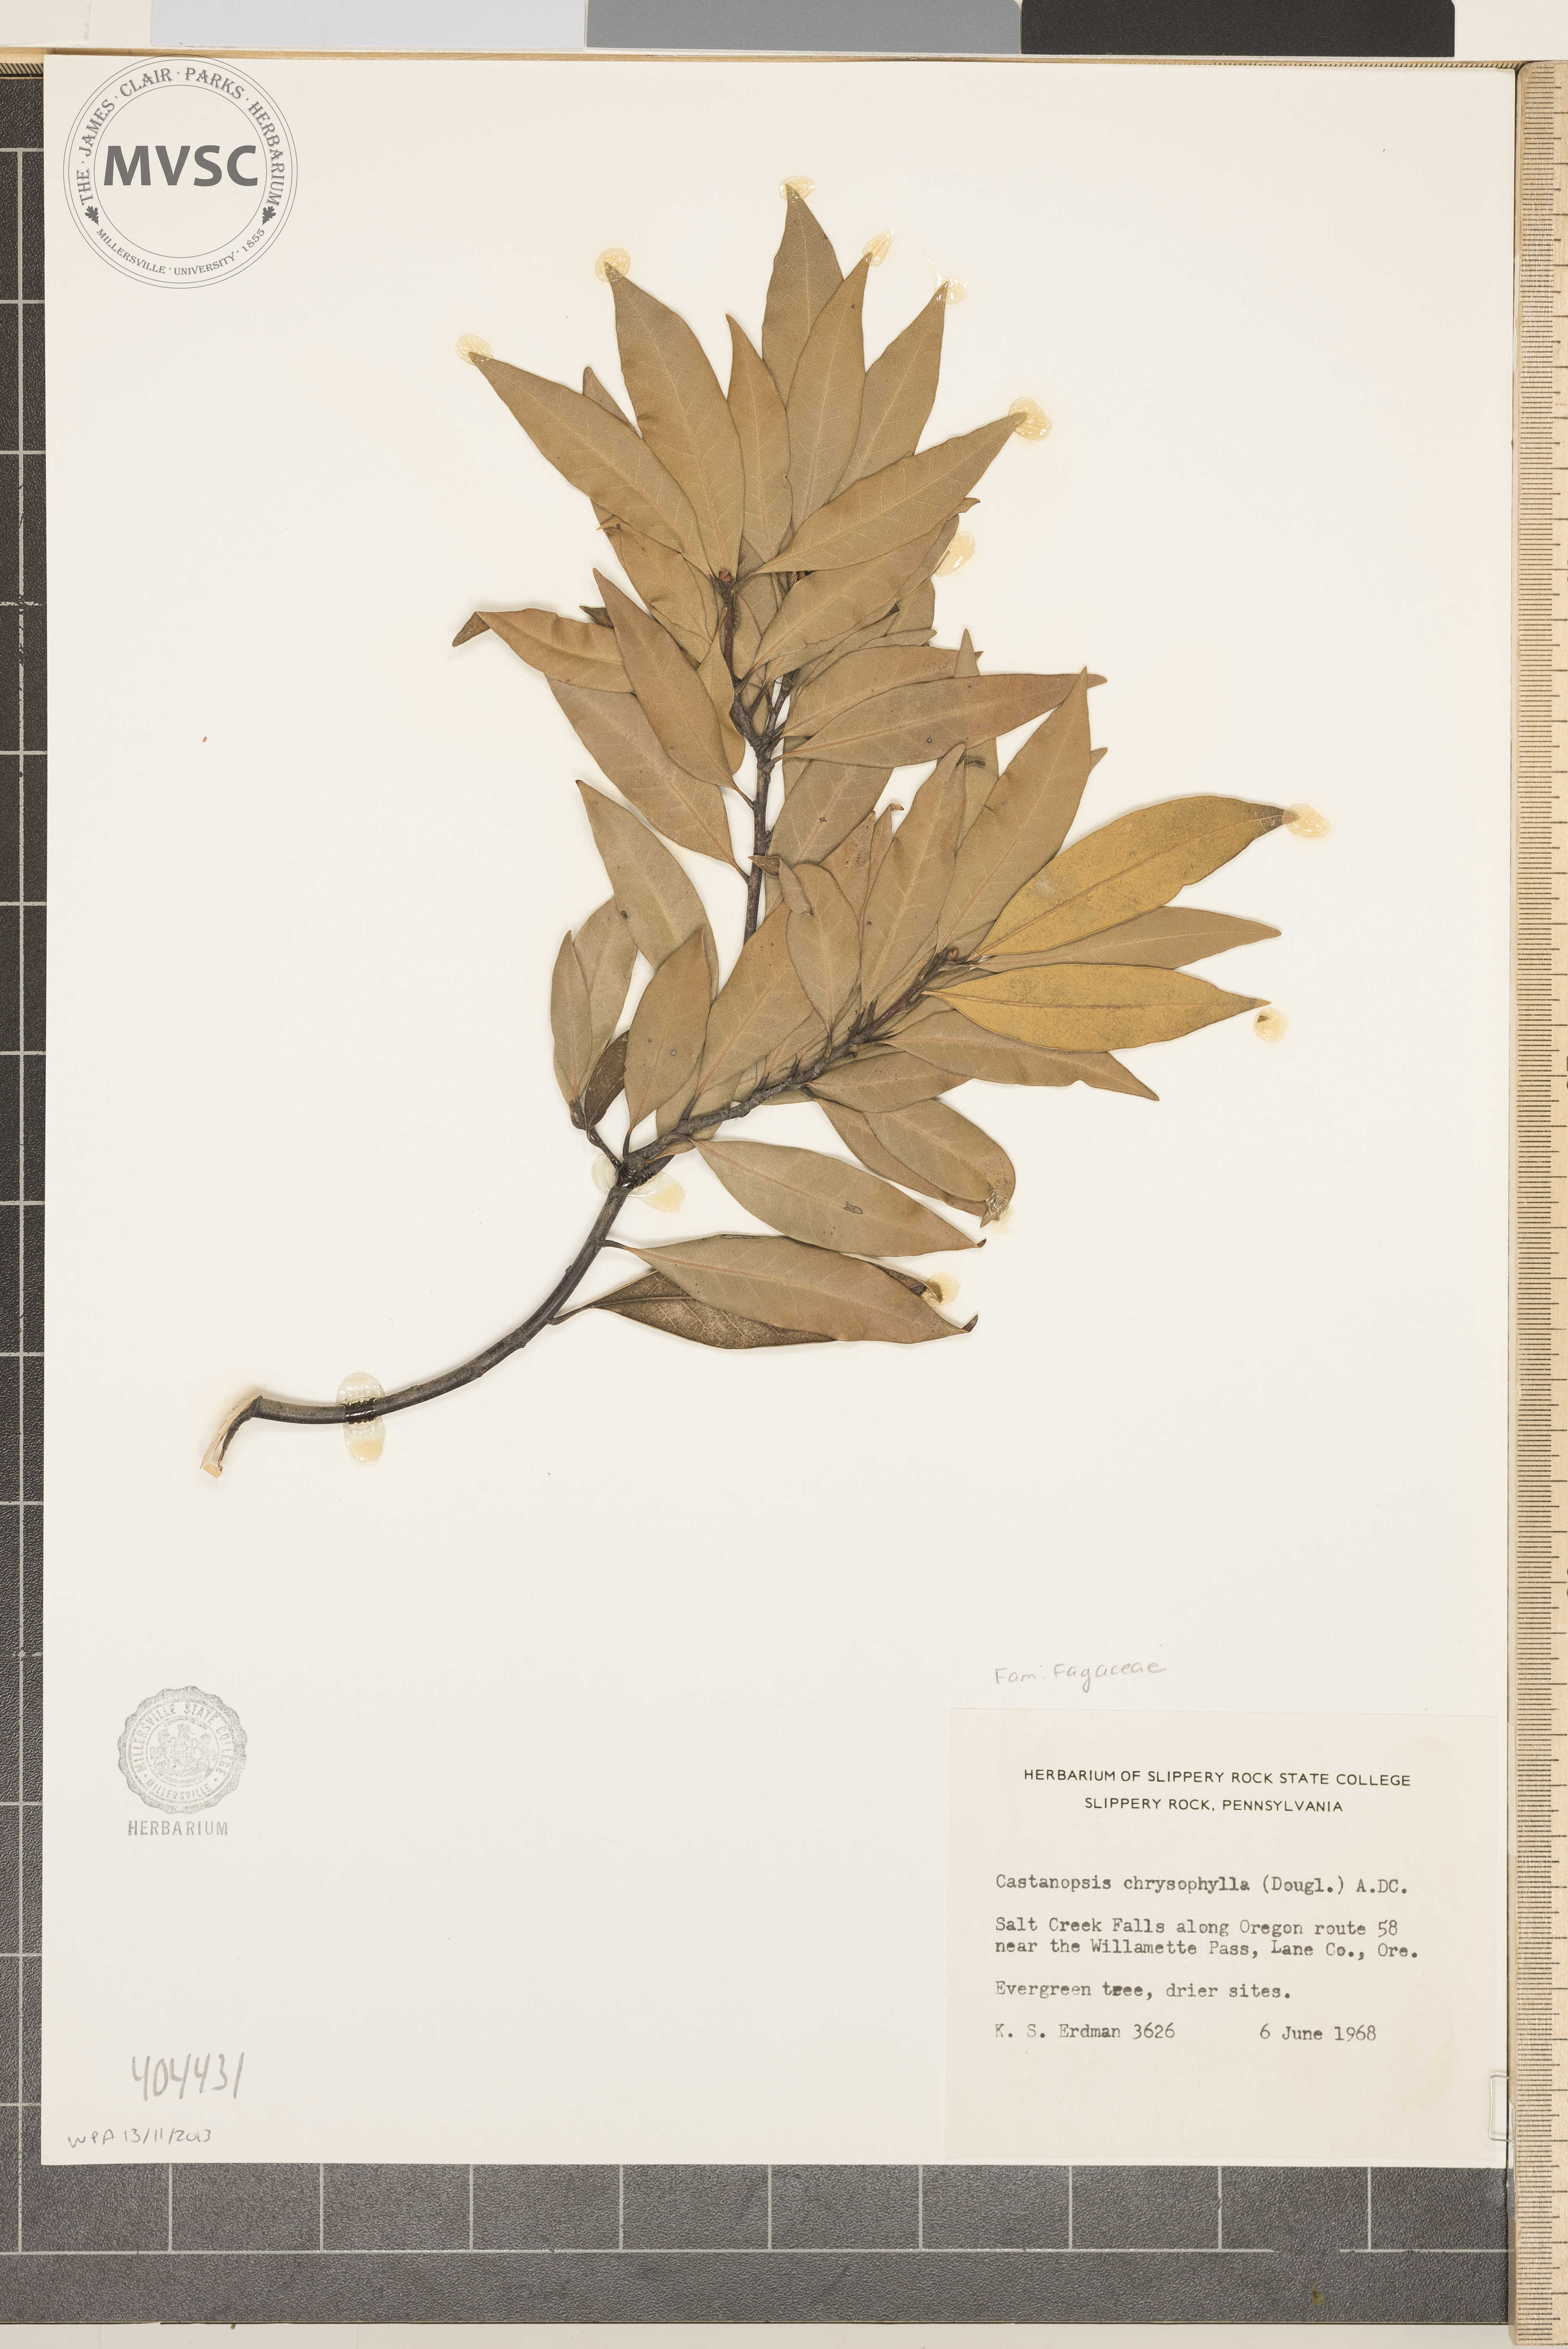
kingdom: Plantae
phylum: Tracheophyta
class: Magnoliopsida
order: Fagales
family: Fagaceae
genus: Chrysolepis
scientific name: Chrysolepis chrysophylla
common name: Giant chinquapin
